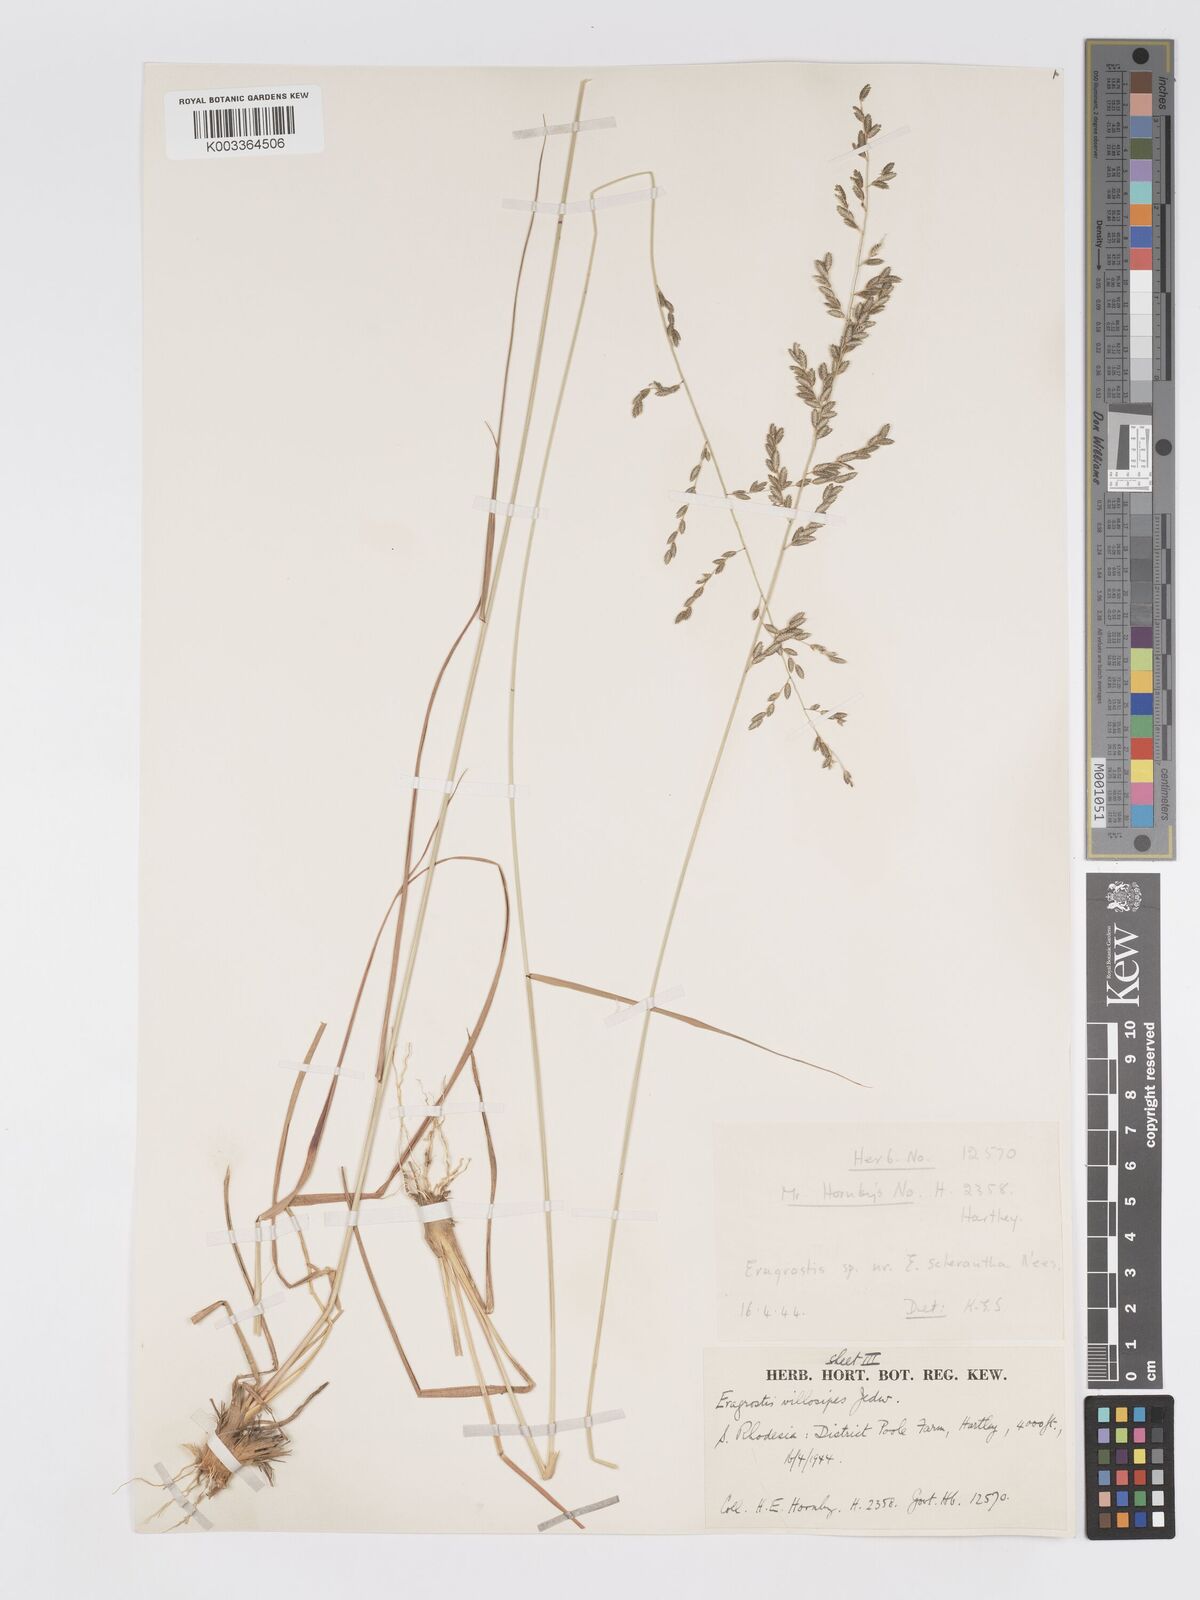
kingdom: Plantae
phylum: Tracheophyta
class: Liliopsida
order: Poales
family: Poaceae
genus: Eragrostis
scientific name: Eragrostis sclerantha
